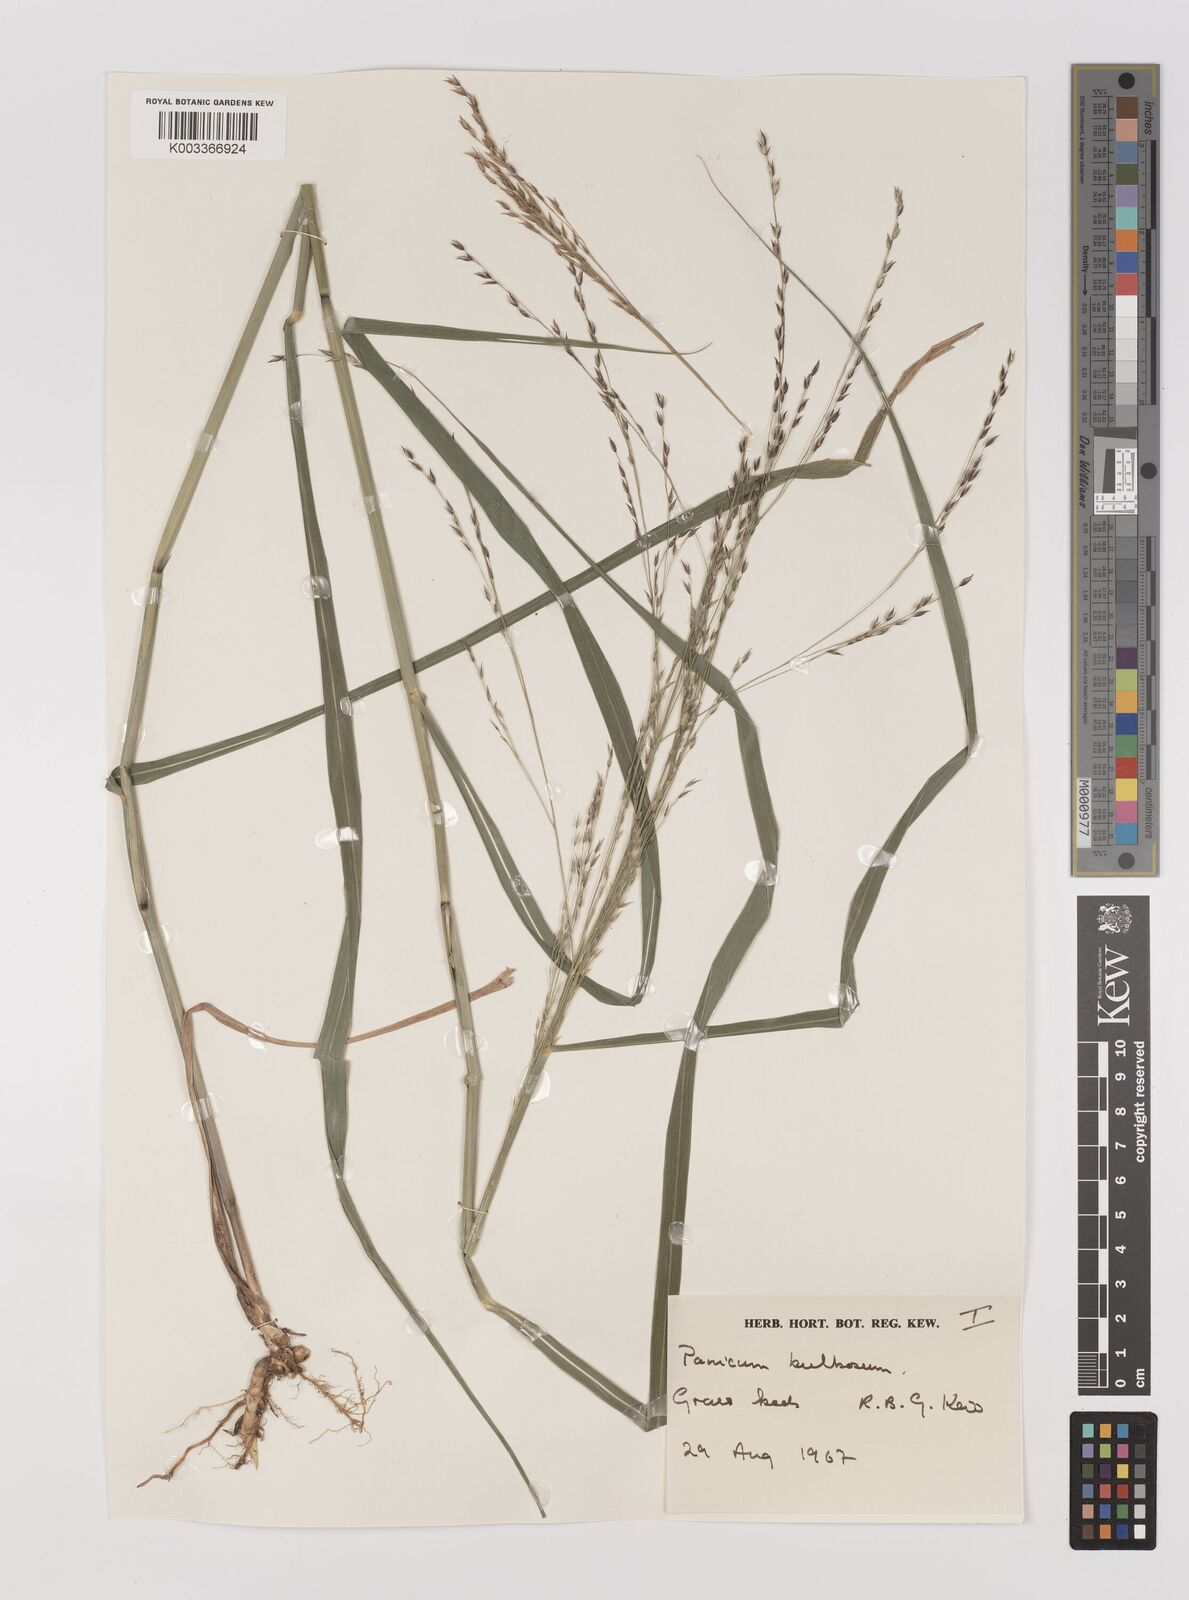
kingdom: Plantae
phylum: Tracheophyta
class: Liliopsida
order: Poales
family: Poaceae
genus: Zuloagaea
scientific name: Zuloagaea bulbosa
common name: Canyon panic grass
